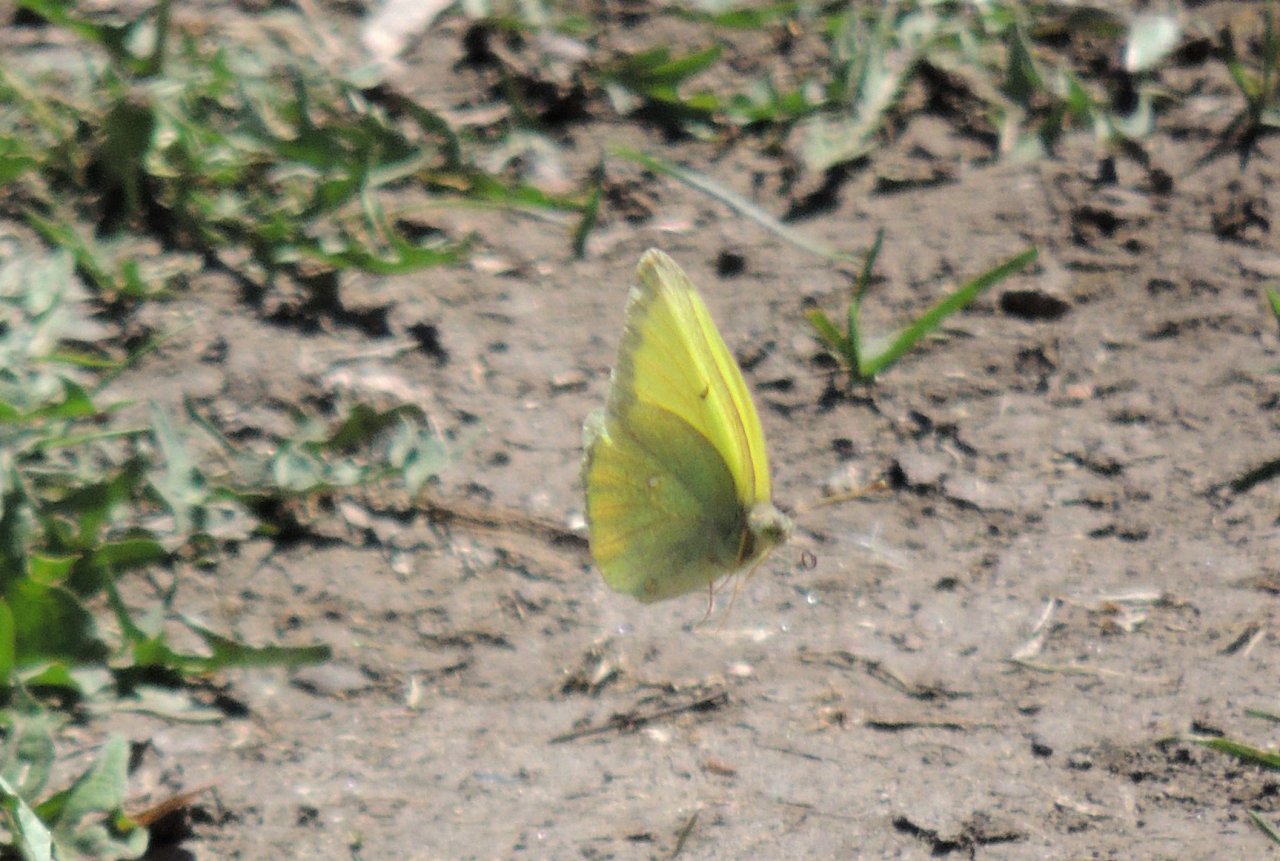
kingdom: Animalia
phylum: Arthropoda
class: Insecta
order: Lepidoptera
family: Pieridae
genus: Colias
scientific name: Colias alexandra
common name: Queen Alexandra's Sulphur
